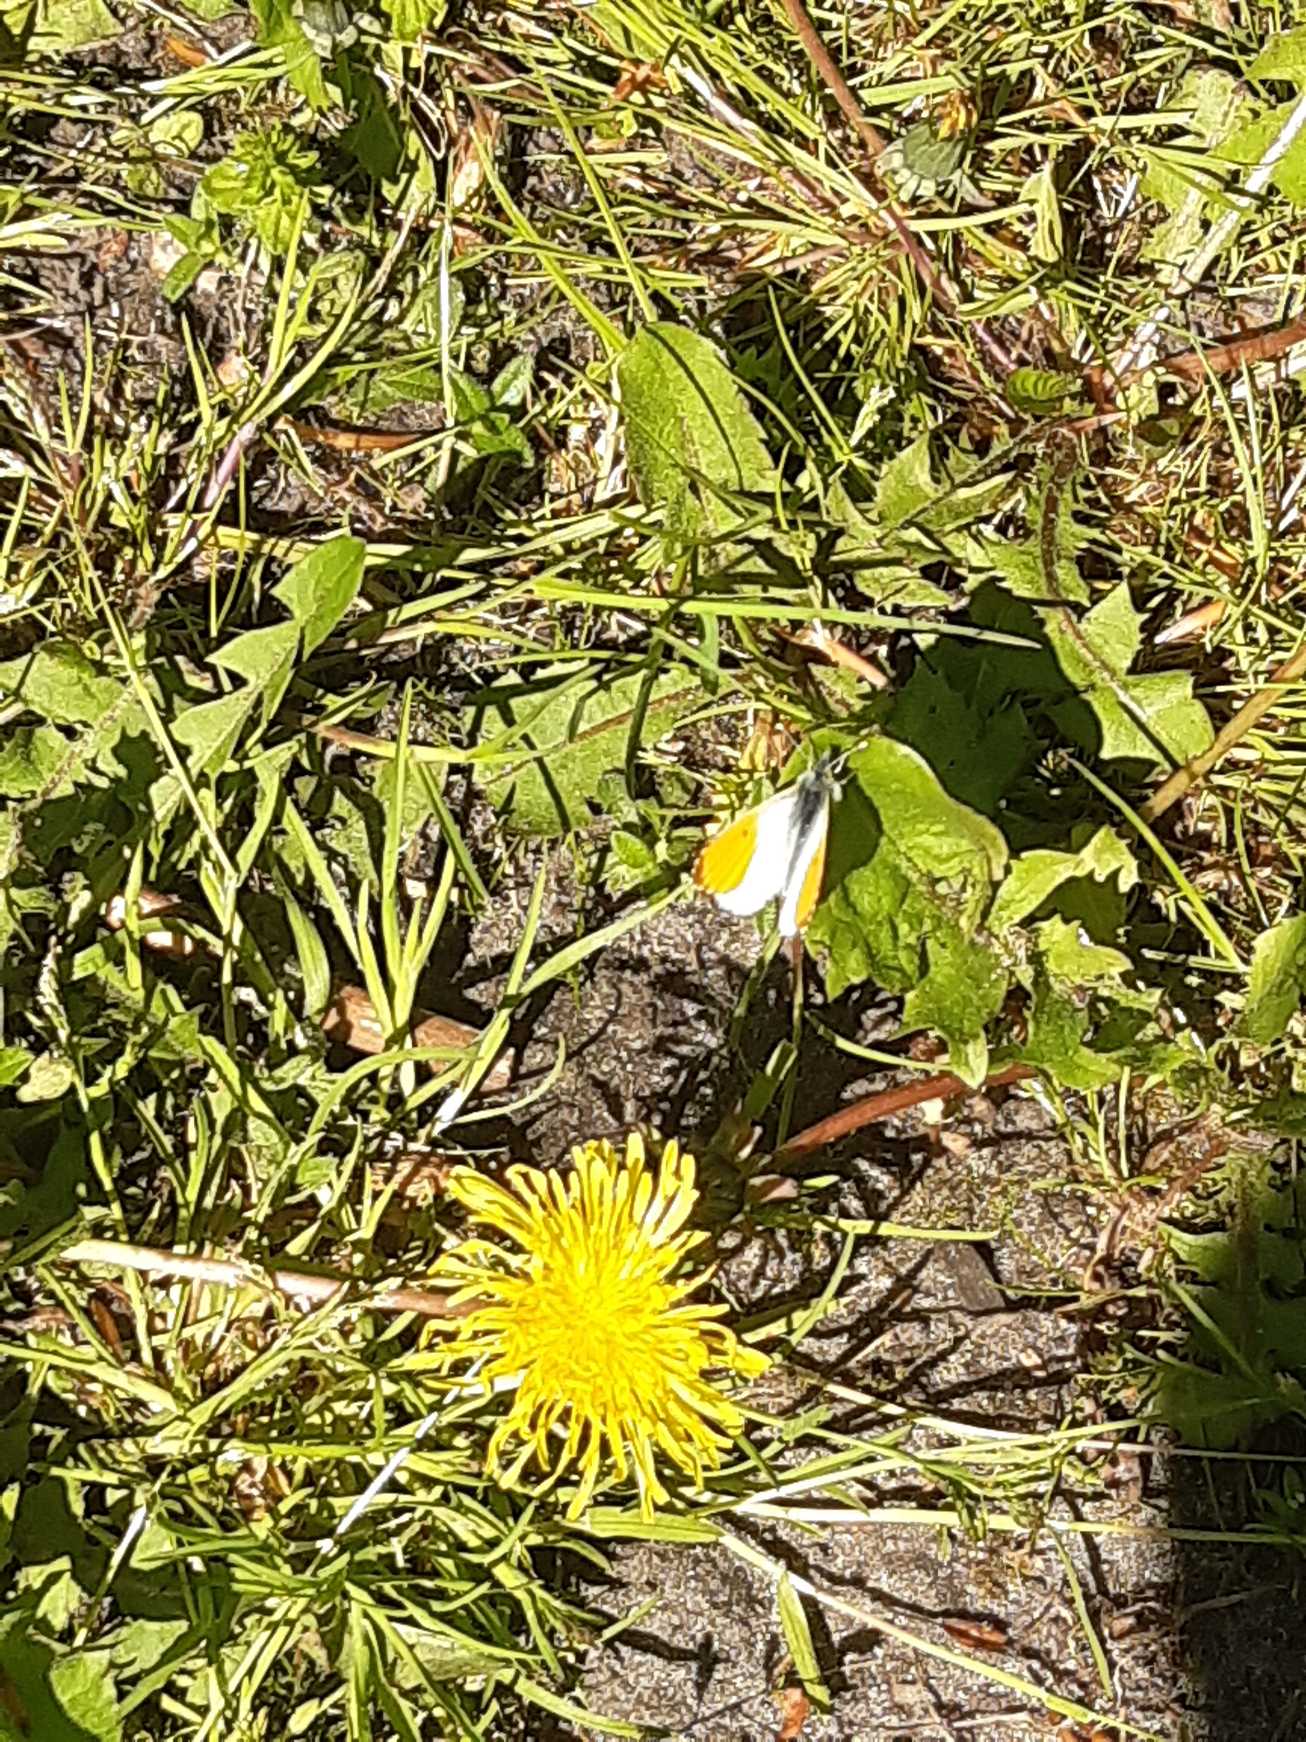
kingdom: Animalia
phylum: Arthropoda
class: Insecta
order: Lepidoptera
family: Pieridae
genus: Anthocharis
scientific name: Anthocharis cardamines
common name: Aurora
